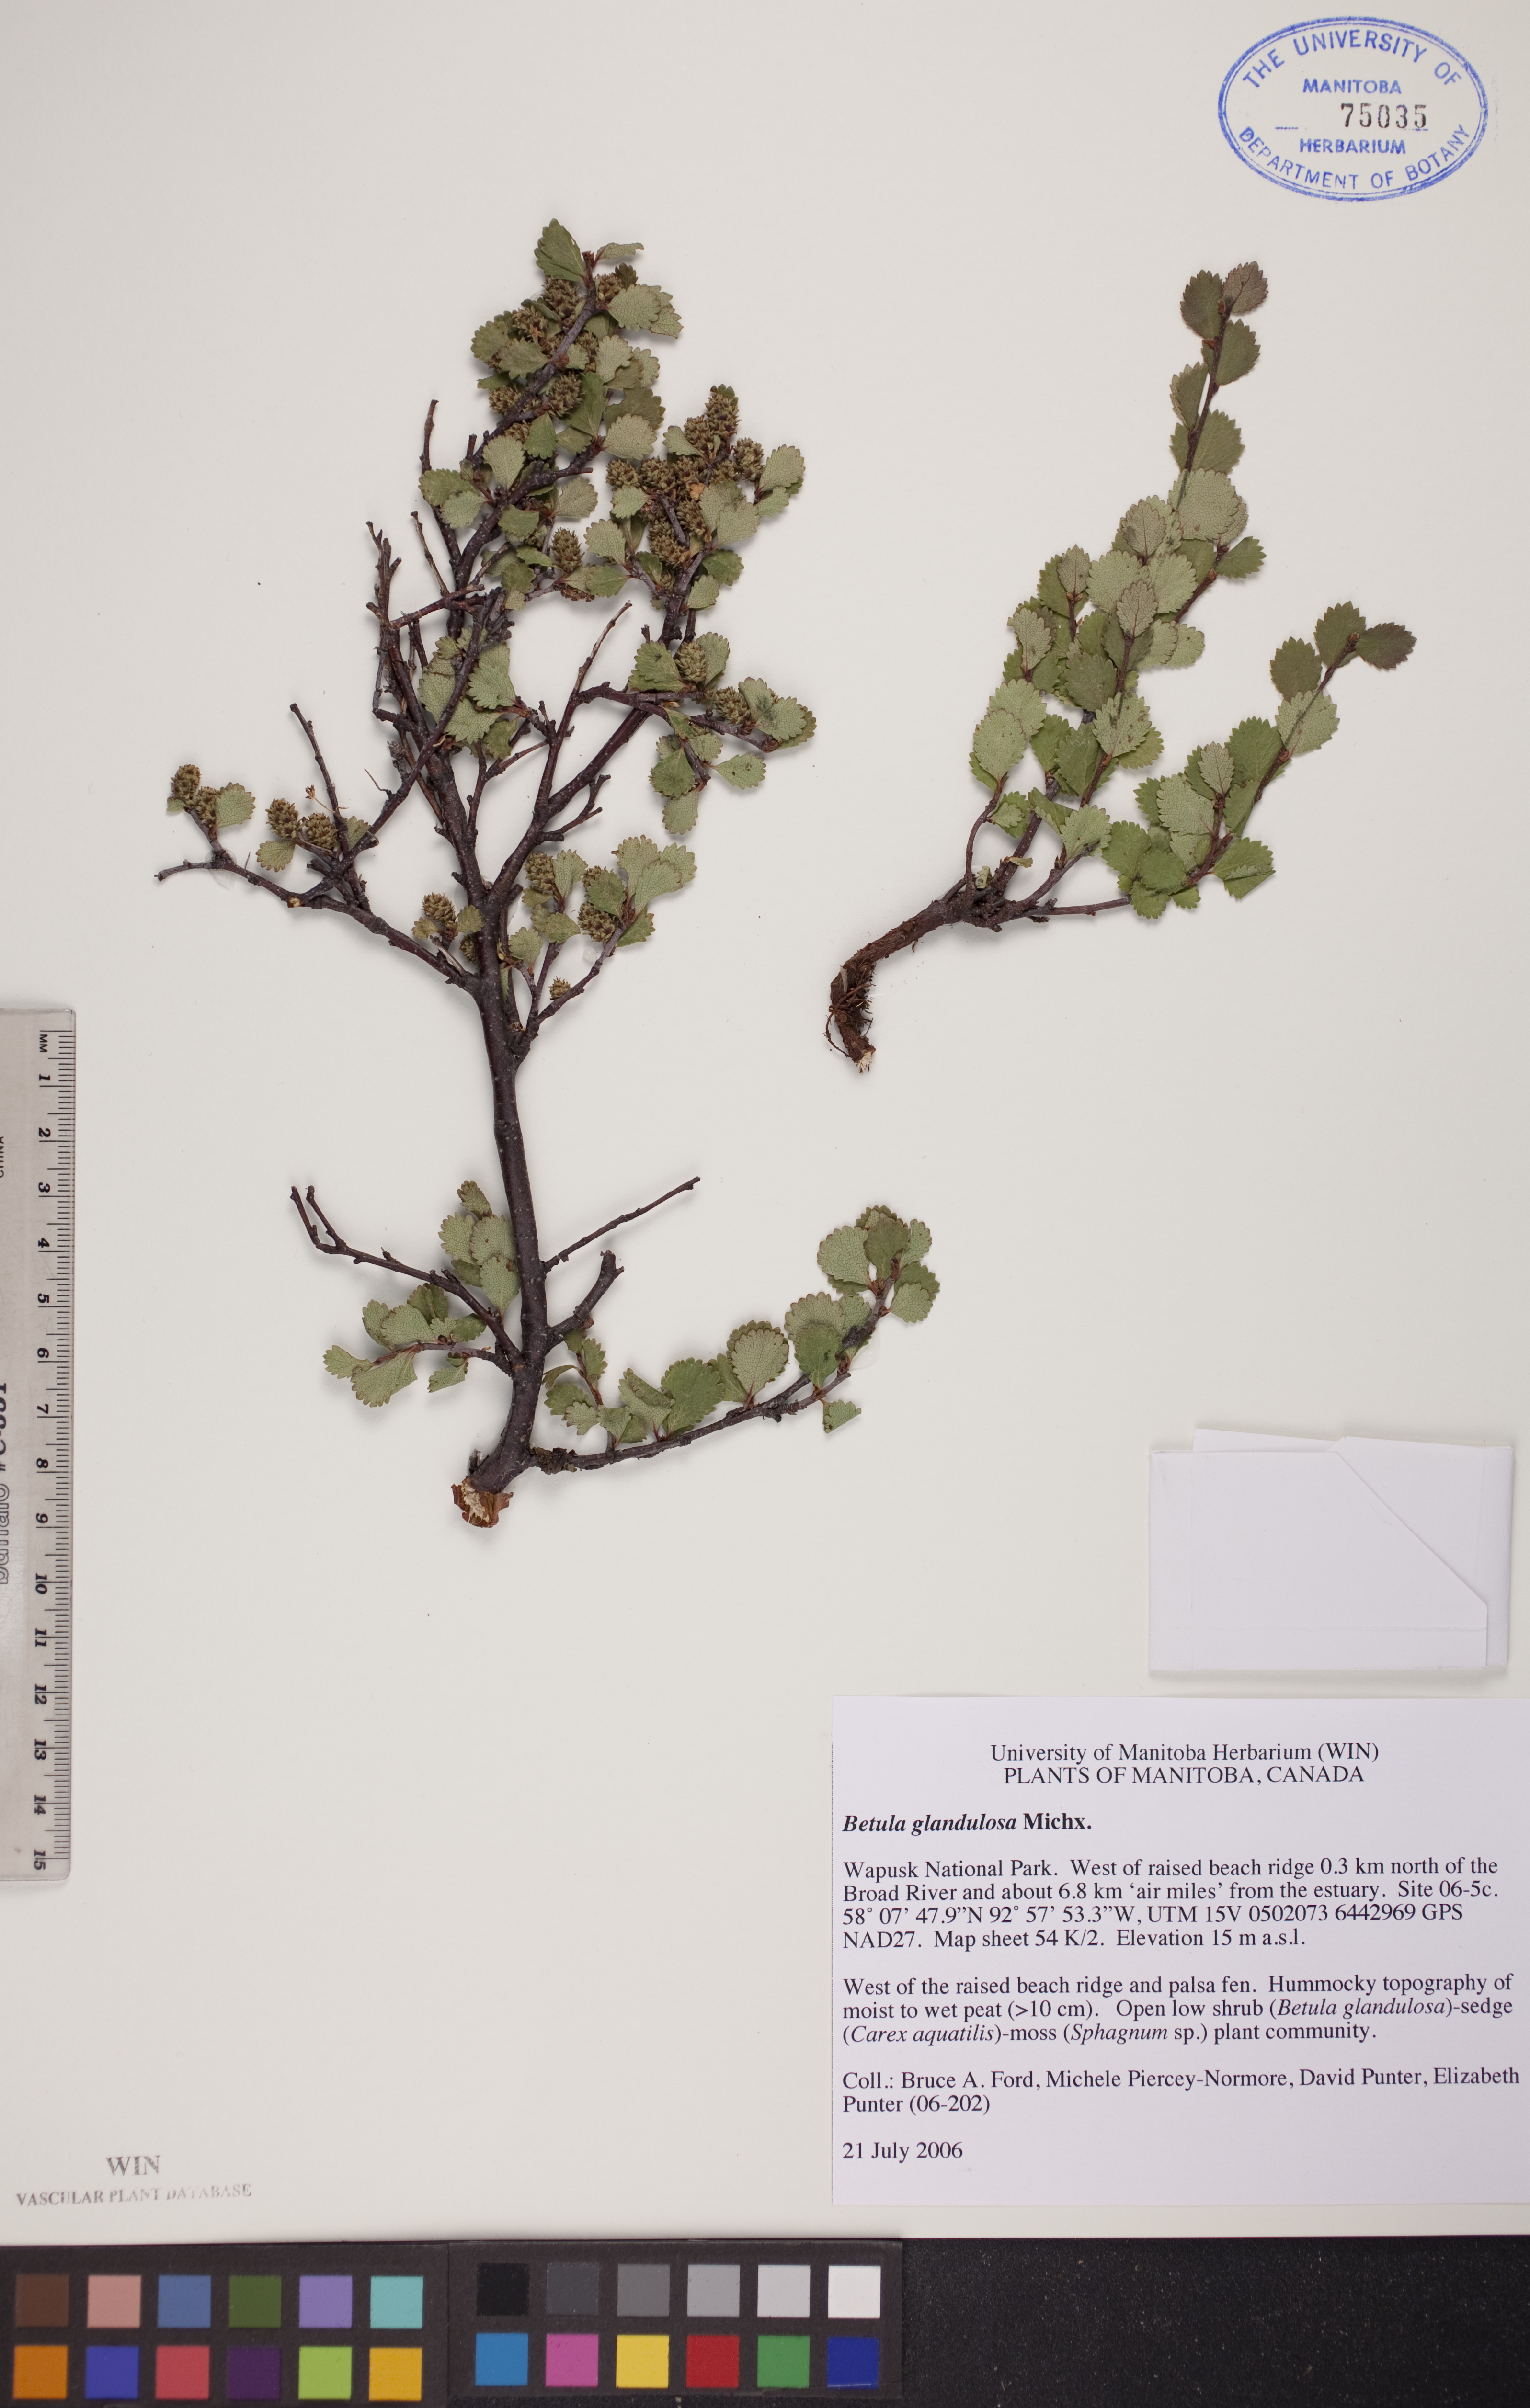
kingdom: Plantae
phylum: Tracheophyta
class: Magnoliopsida
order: Fagales
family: Betulaceae
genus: Betula
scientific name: Betula glandulosa
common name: Dwarf birch
